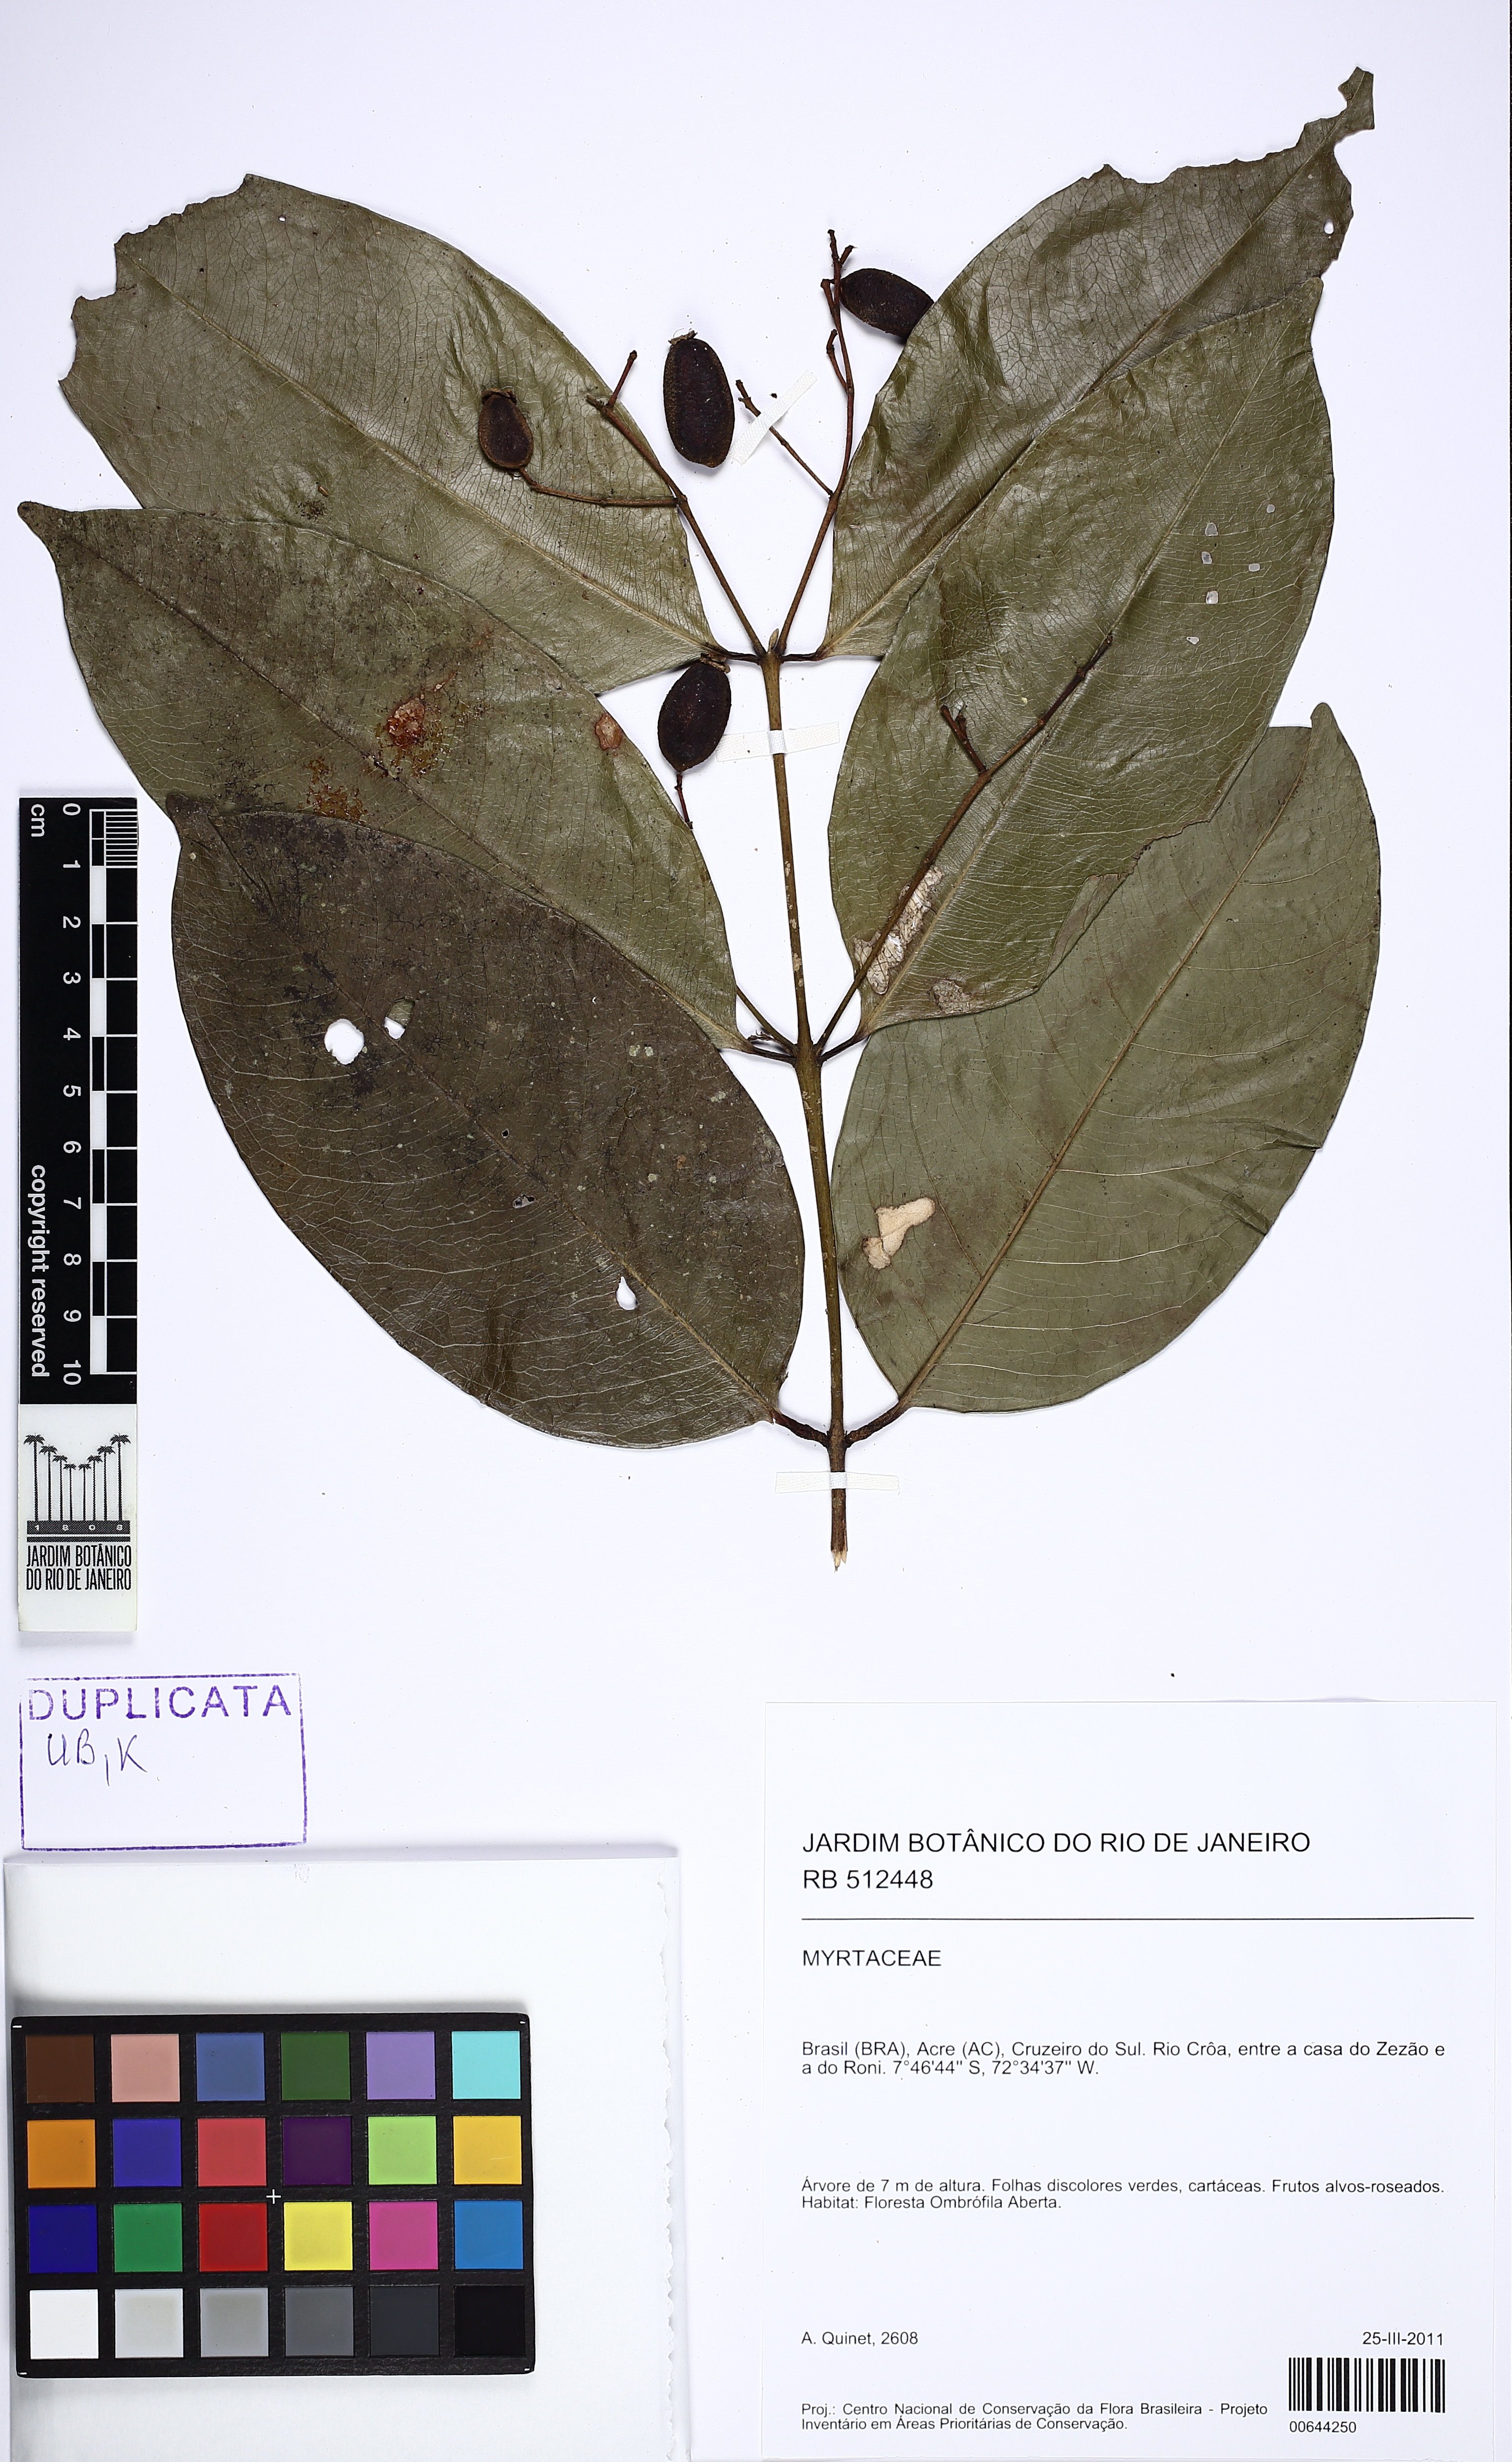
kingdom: Plantae
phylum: Tracheophyta
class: Magnoliopsida
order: Myrtales
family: Myrtaceae
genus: Myrcia
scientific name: Myrcia dichasialis
